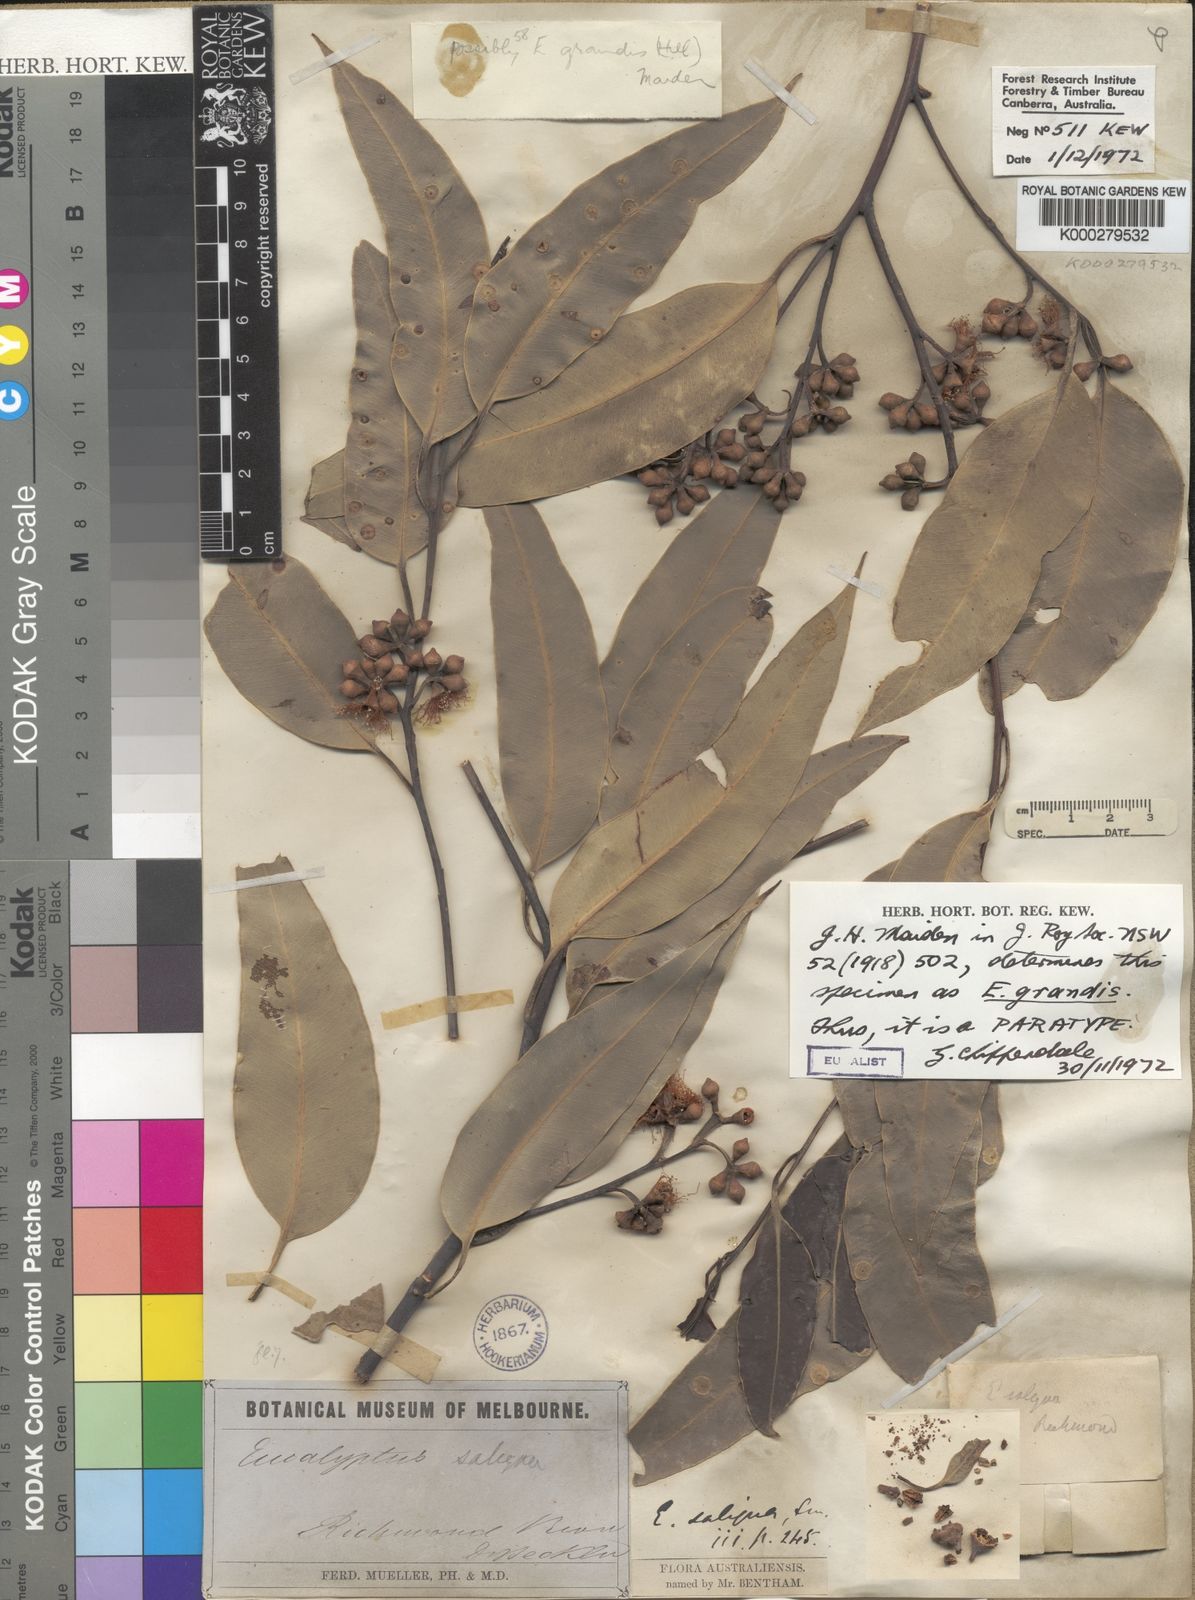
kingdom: Plantae
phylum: Tracheophyta
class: Magnoliopsida
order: Myrtales
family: Myrtaceae
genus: Eucalyptus
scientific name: Eucalyptus grandis
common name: Grand eucalyptus
